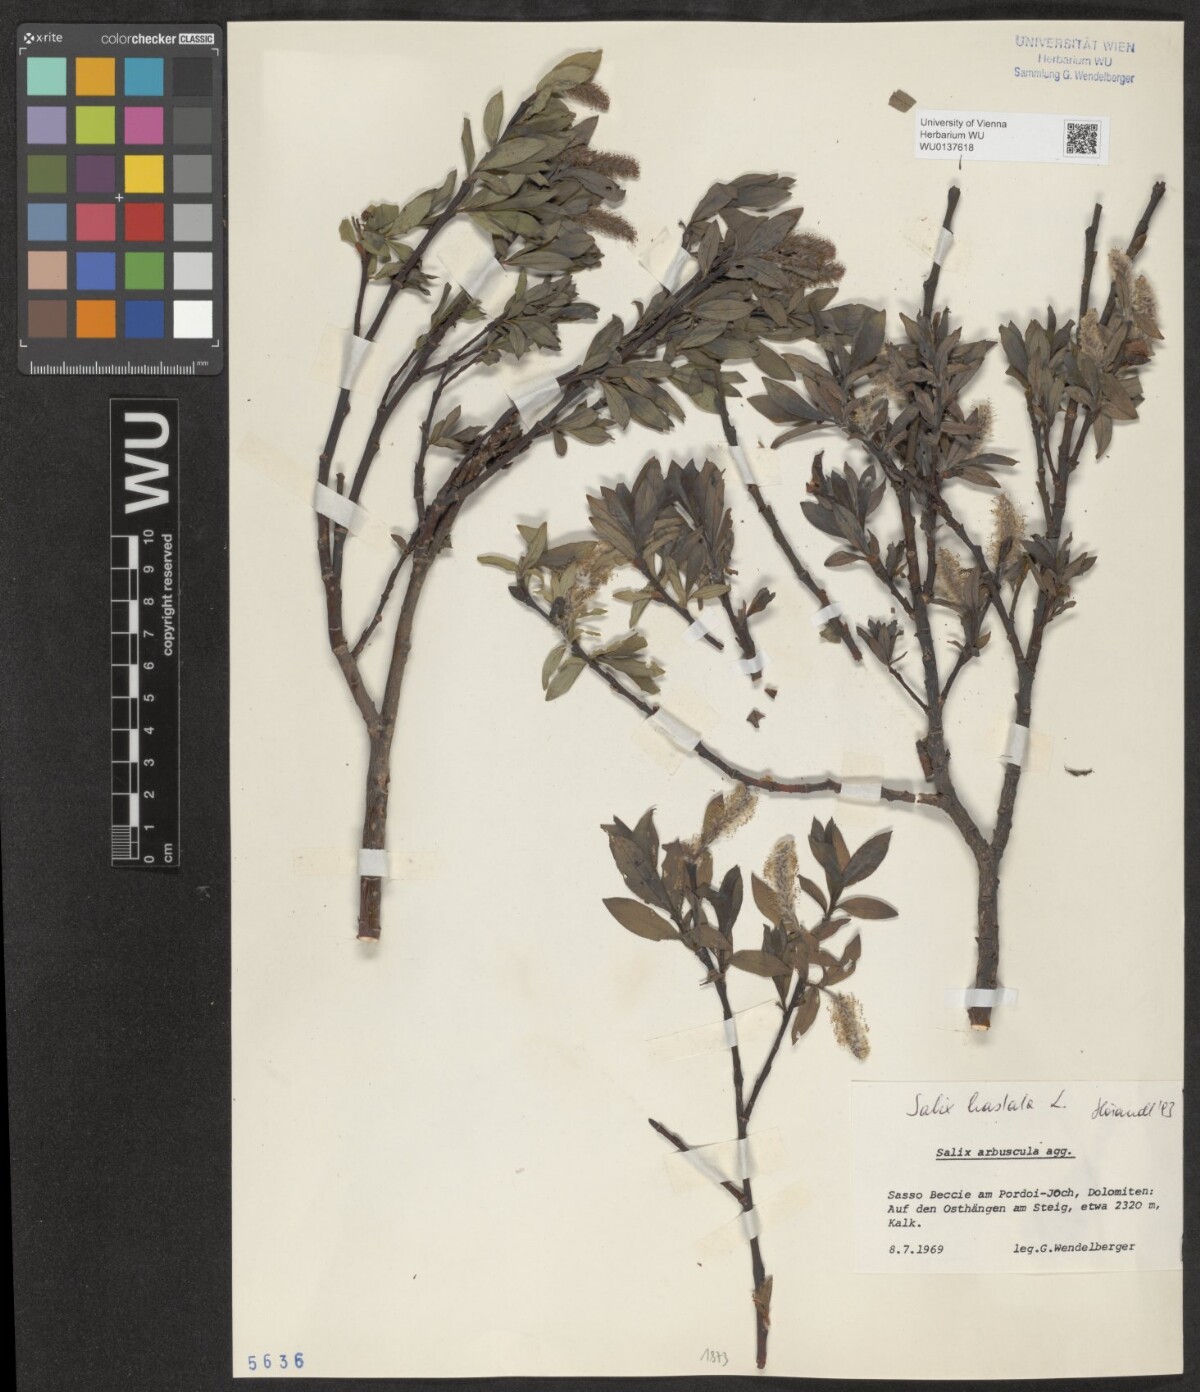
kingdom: Plantae
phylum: Tracheophyta
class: Magnoliopsida
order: Malpighiales
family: Salicaceae
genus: Salix
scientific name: Salix hastata
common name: Halberd willow
